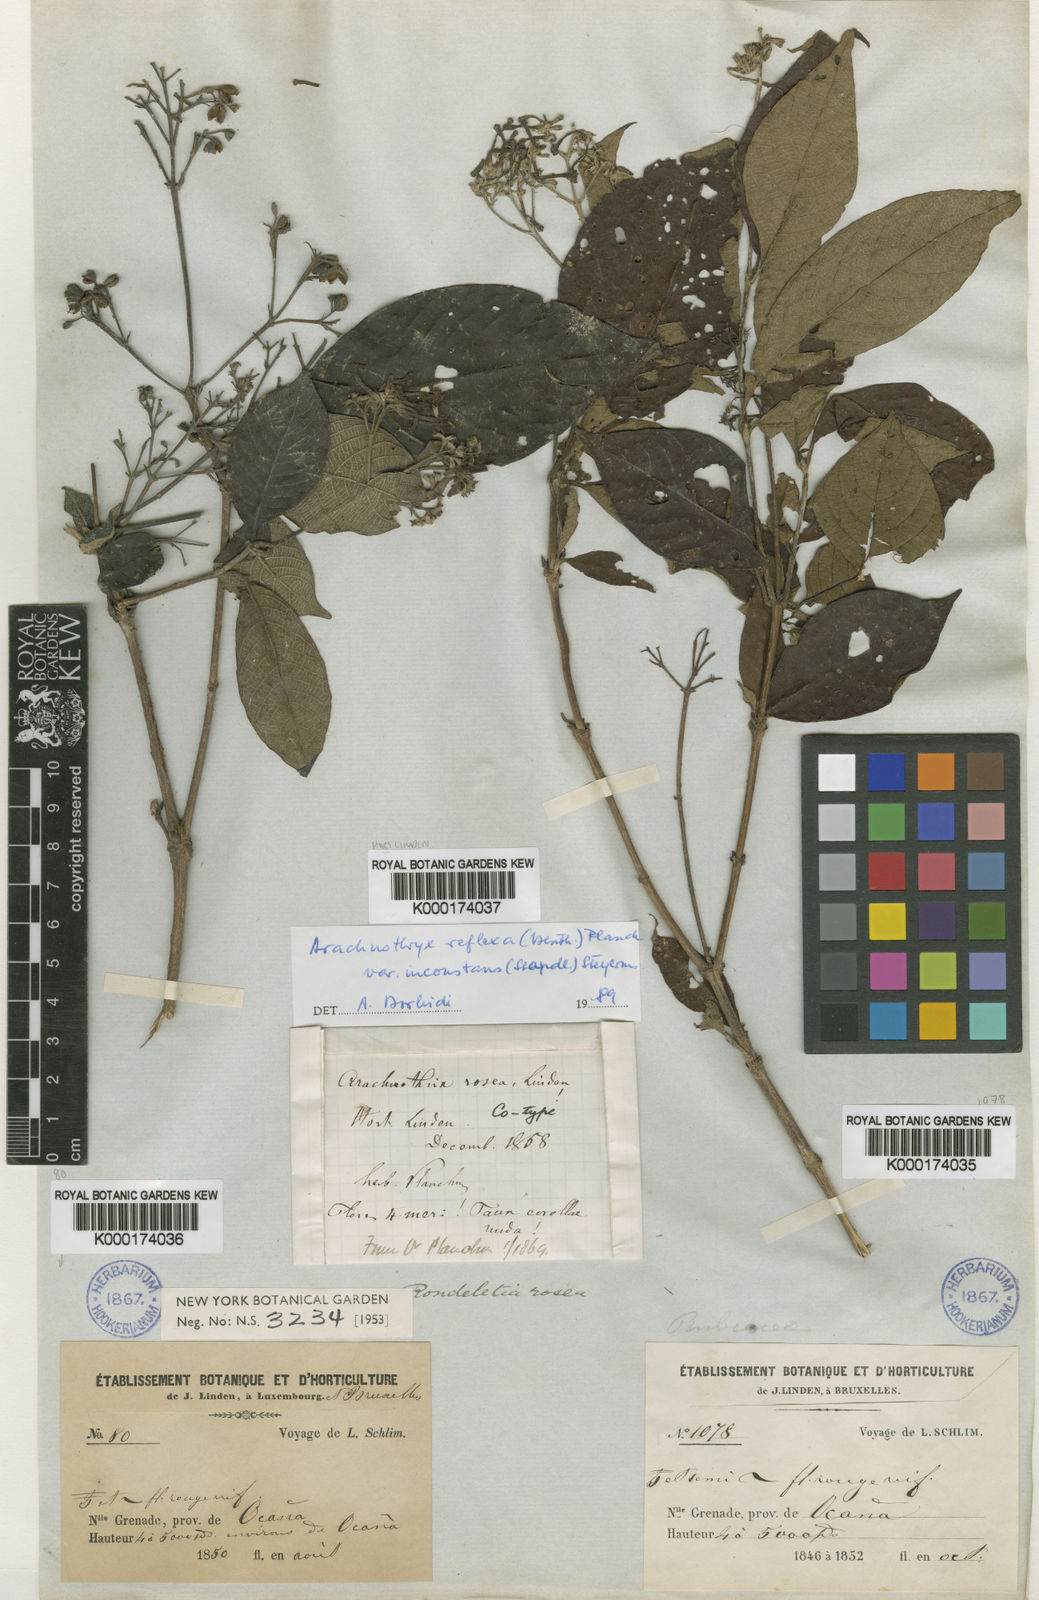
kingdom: Plantae
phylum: Tracheophyta
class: Magnoliopsida
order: Gentianales
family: Rubiaceae
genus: Arachnothryx
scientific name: Arachnothryx reflexa
